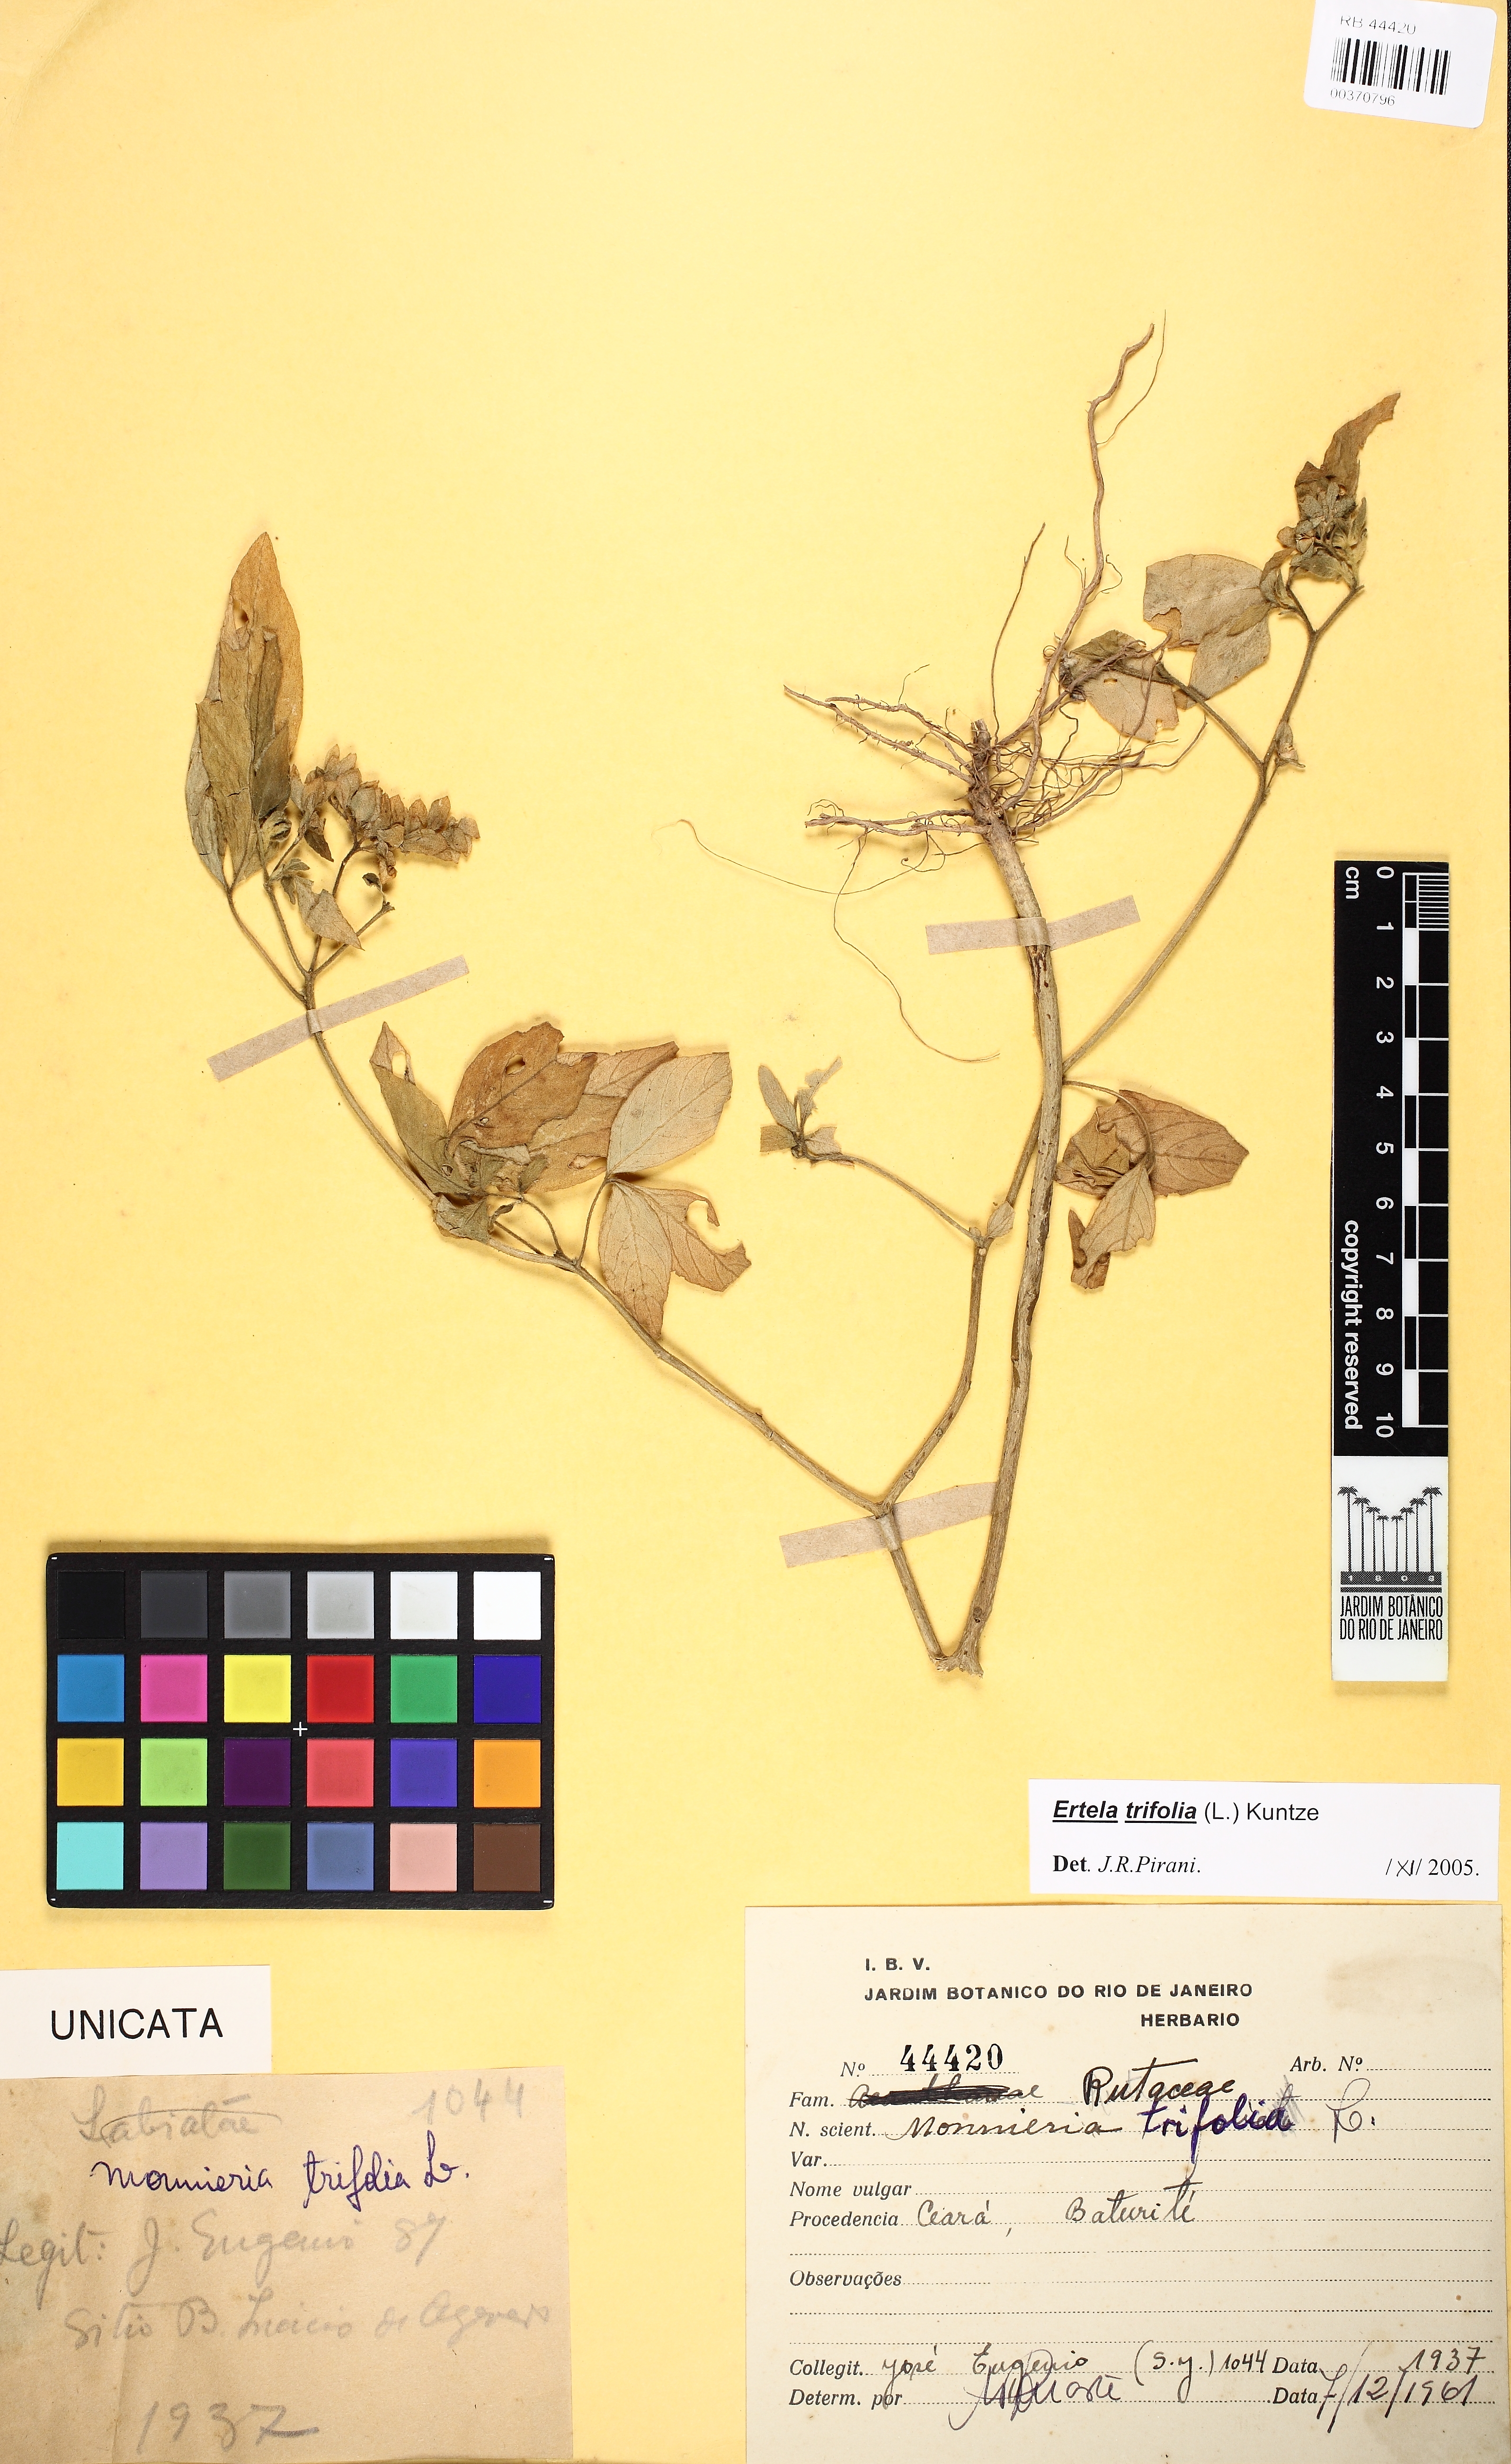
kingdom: Plantae
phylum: Tracheophyta
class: Magnoliopsida
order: Sapindales
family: Rutaceae
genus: Ertela
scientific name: Ertela trifolia
